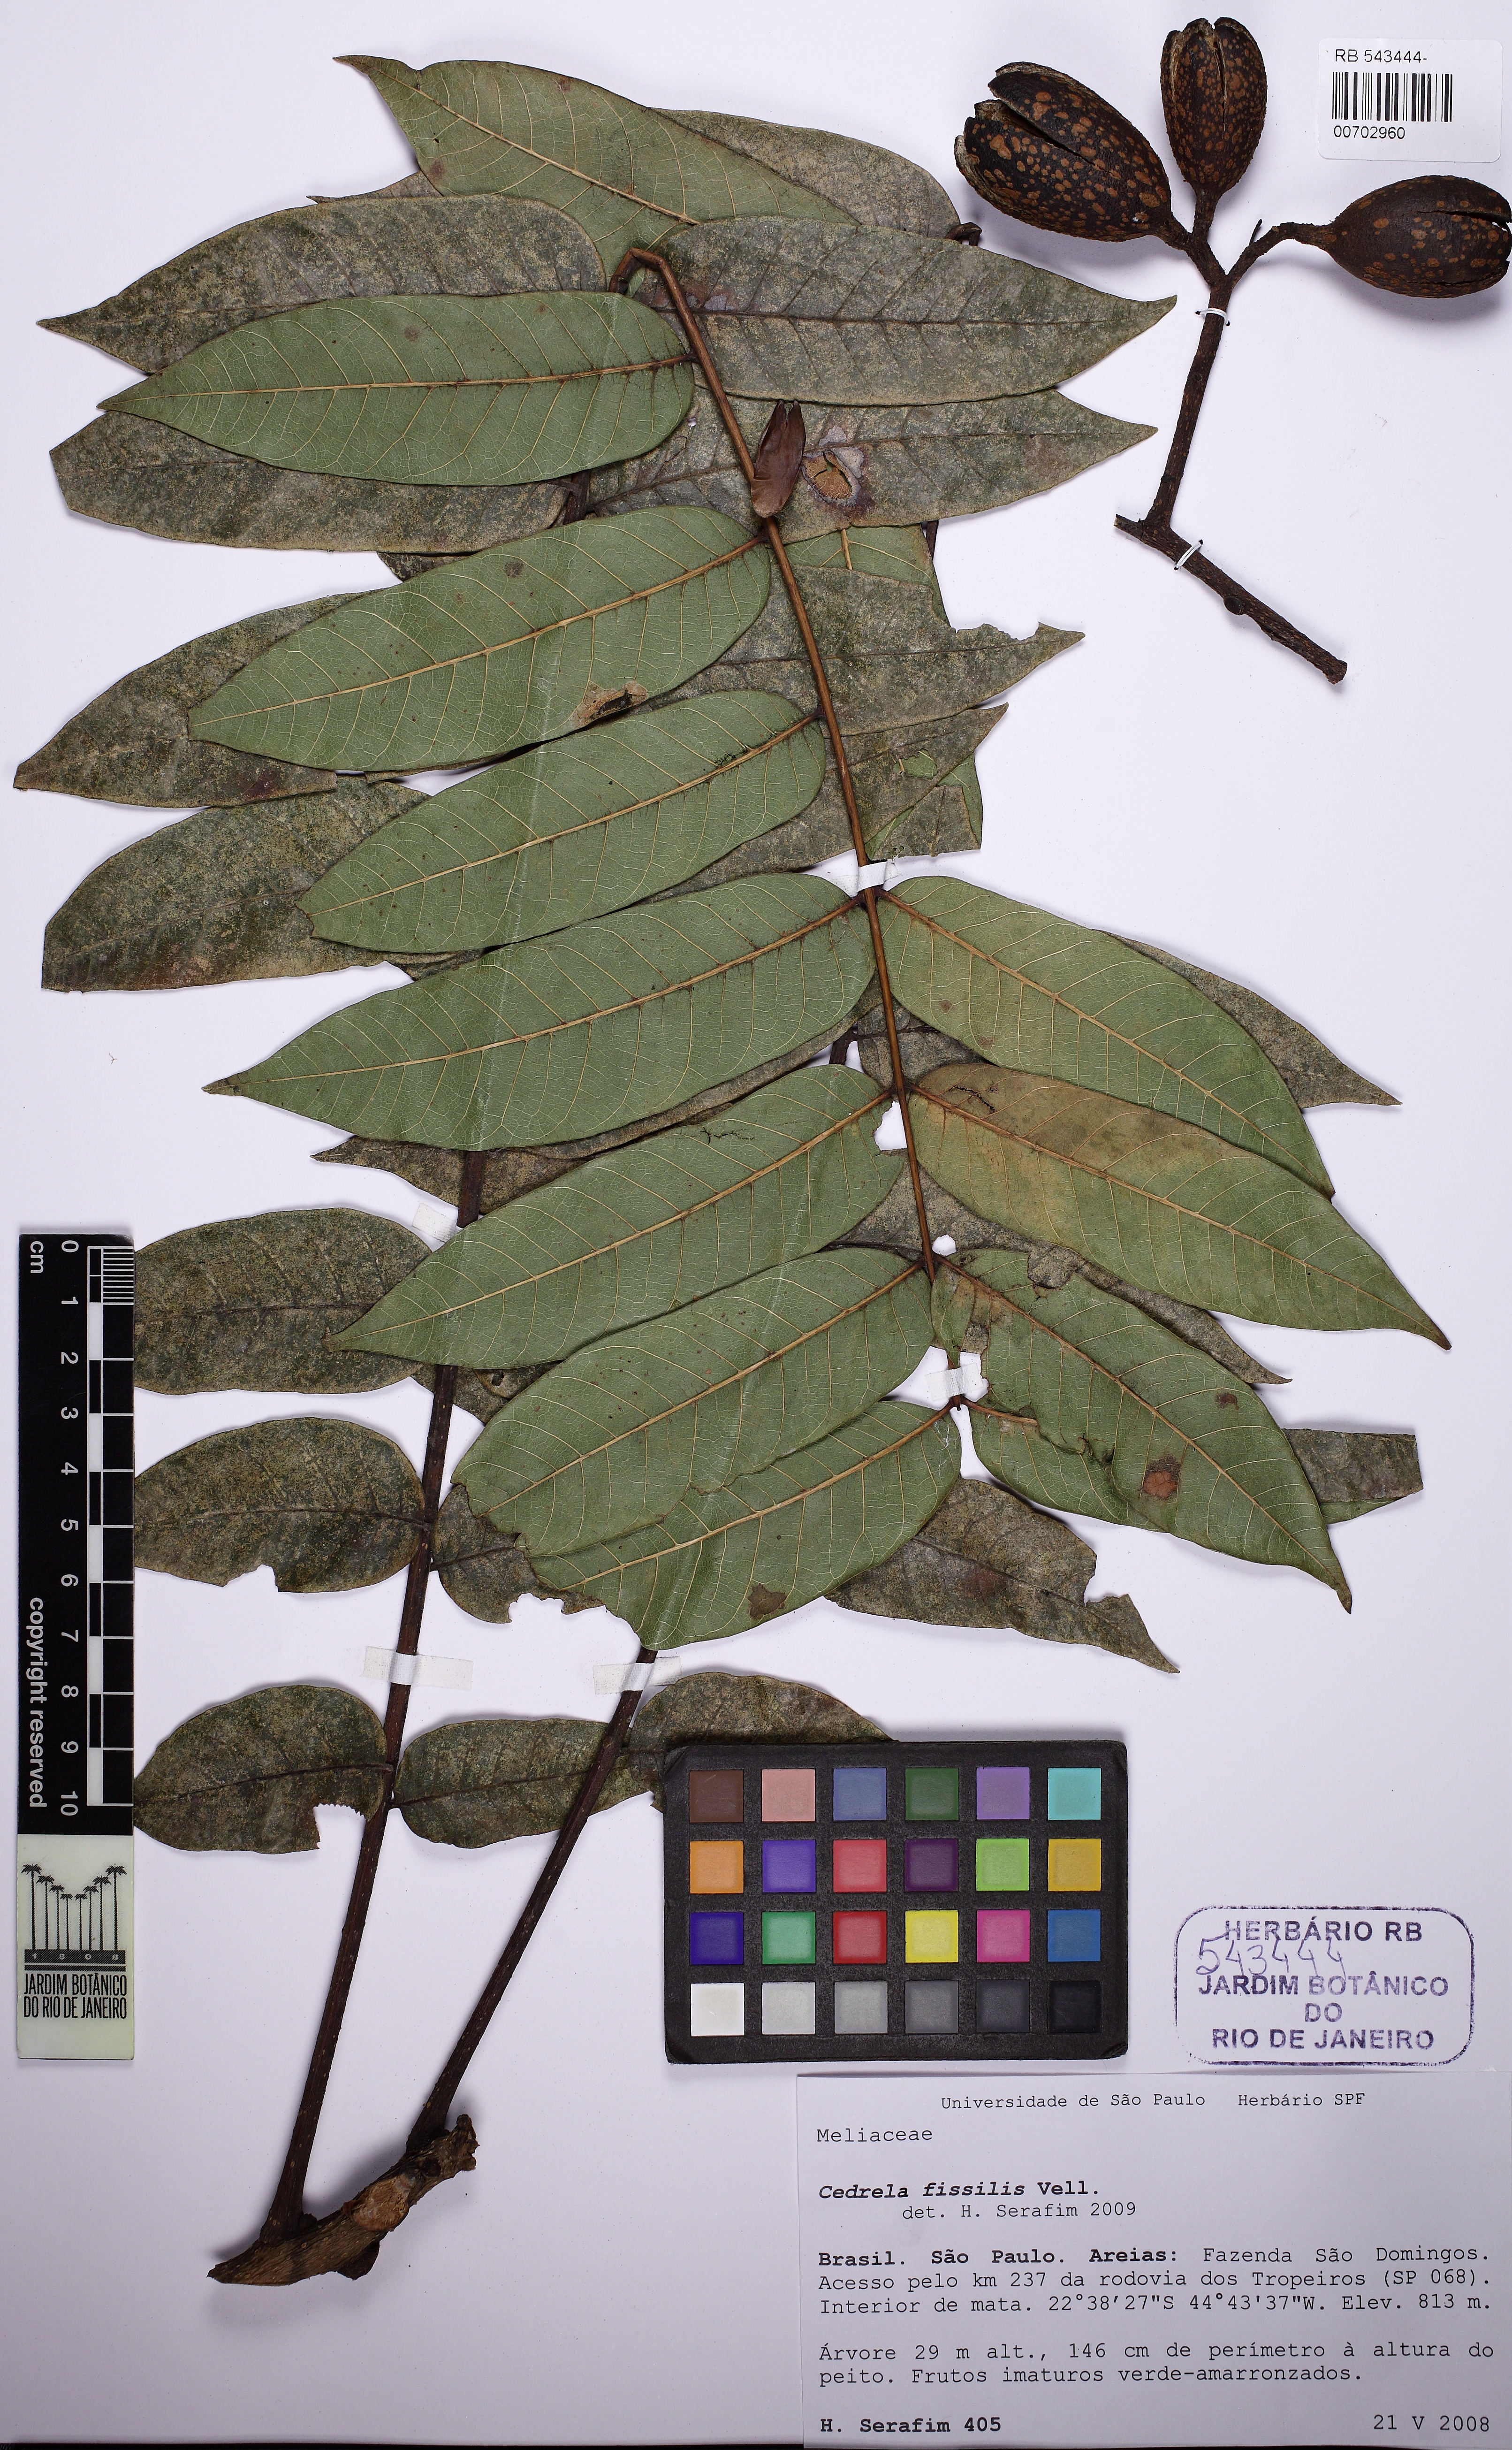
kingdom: Plantae
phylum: Tracheophyta
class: Magnoliopsida
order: Sapindales
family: Meliaceae
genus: Cedrela
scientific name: Cedrela fissilis
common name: Argentine cedar
